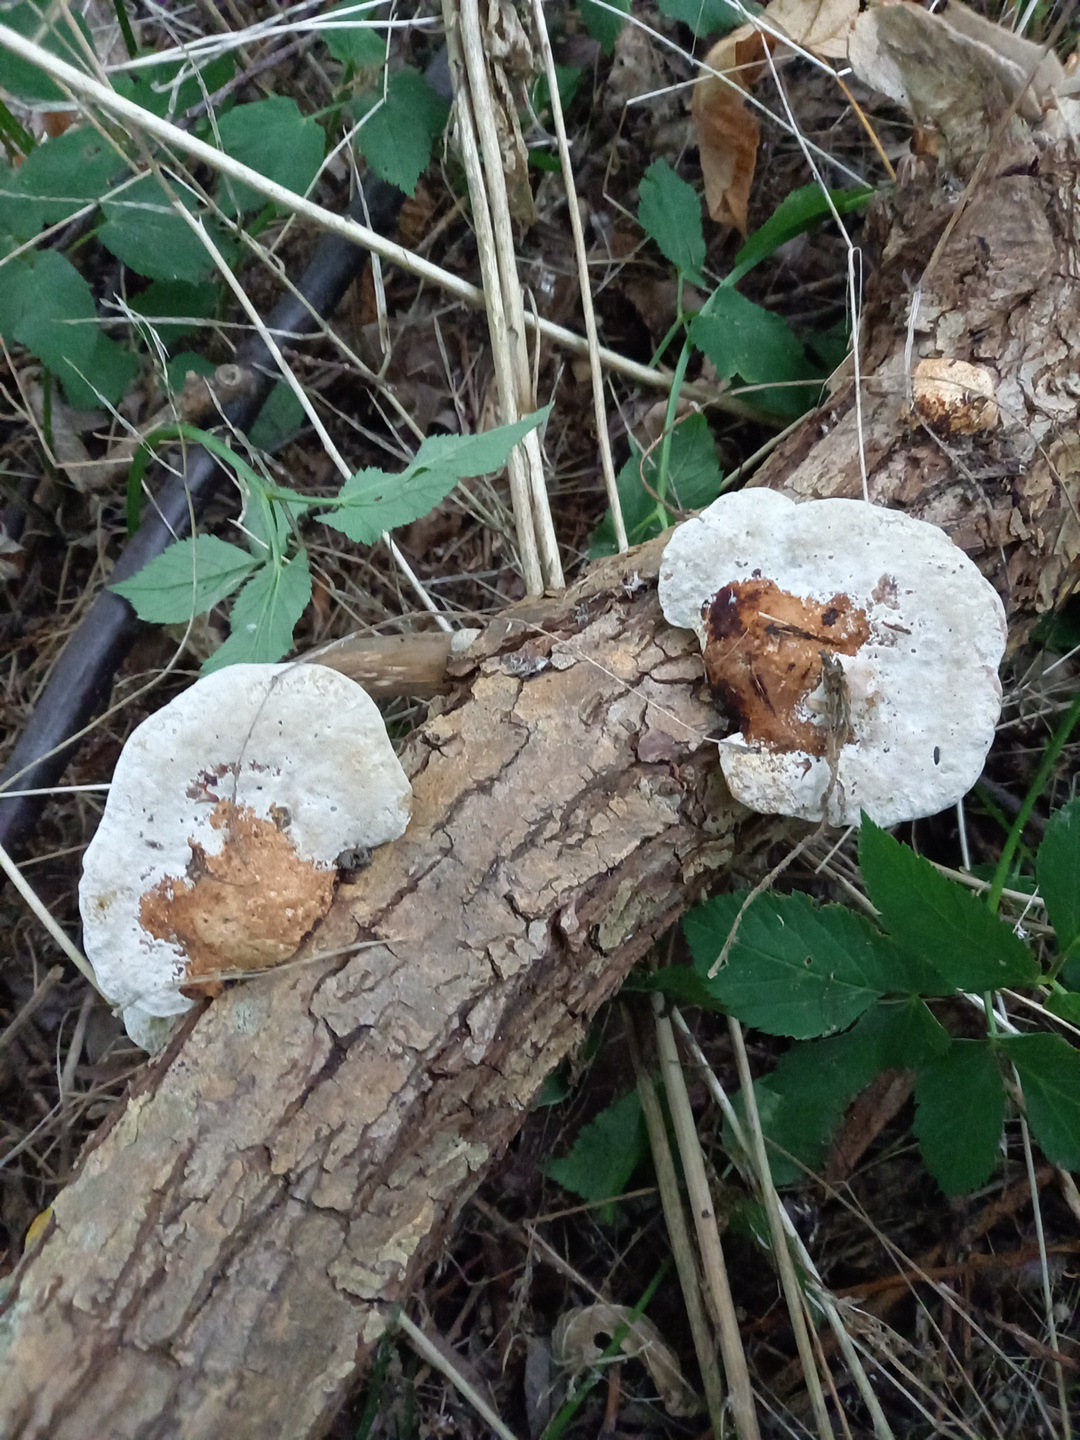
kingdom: Fungi
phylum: Basidiomycota
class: Agaricomycetes
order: Polyporales
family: Polyporaceae
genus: Daedaleopsis
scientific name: Daedaleopsis confragosa
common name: rødmende læderporesvamp
